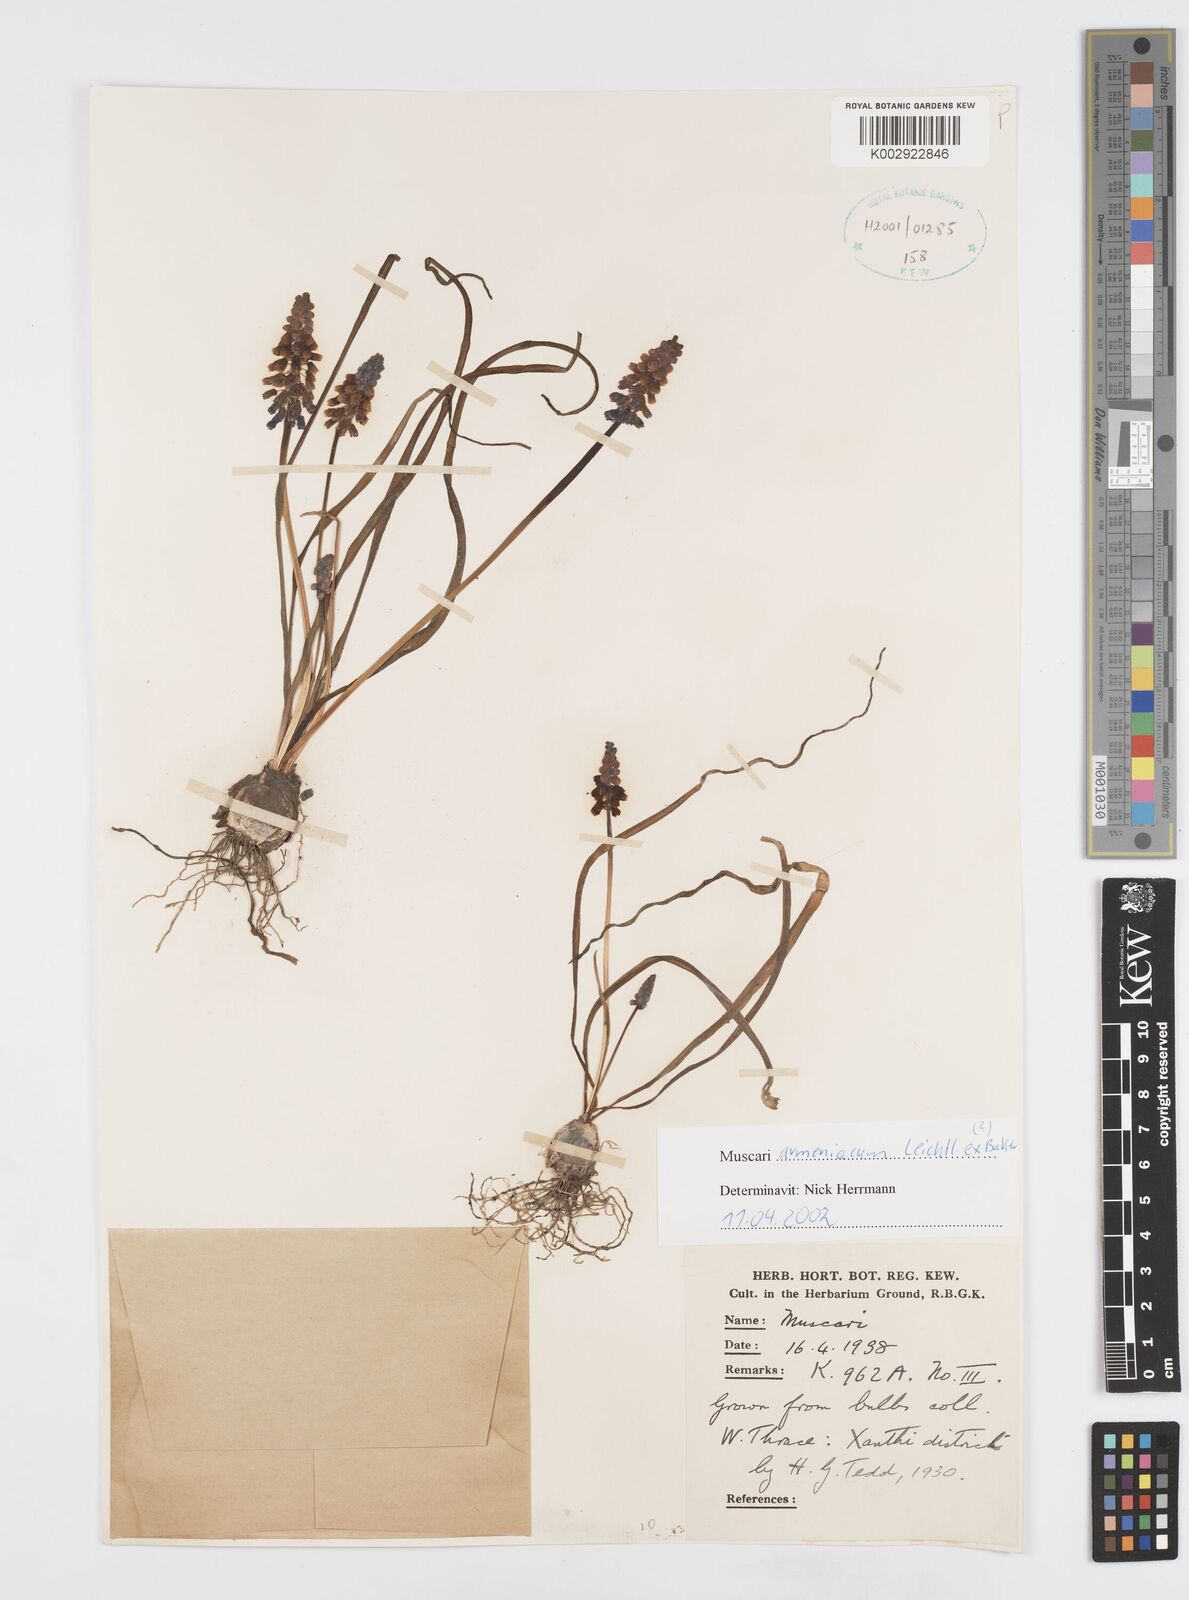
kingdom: Plantae
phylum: Tracheophyta
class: Liliopsida
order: Asparagales
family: Asparagaceae
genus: Muscari
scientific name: Muscari
